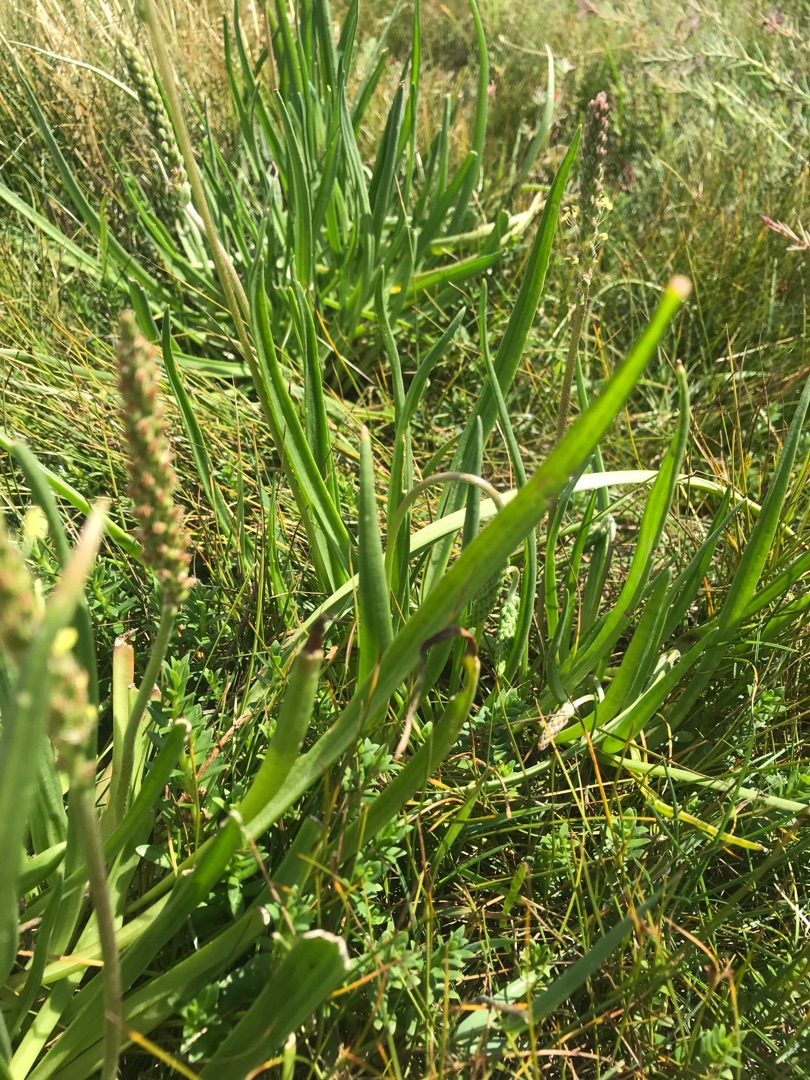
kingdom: Plantae
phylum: Tracheophyta
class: Magnoliopsida
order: Lamiales
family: Plantaginaceae
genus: Plantago
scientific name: Plantago maritima
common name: Strand-vejbred
